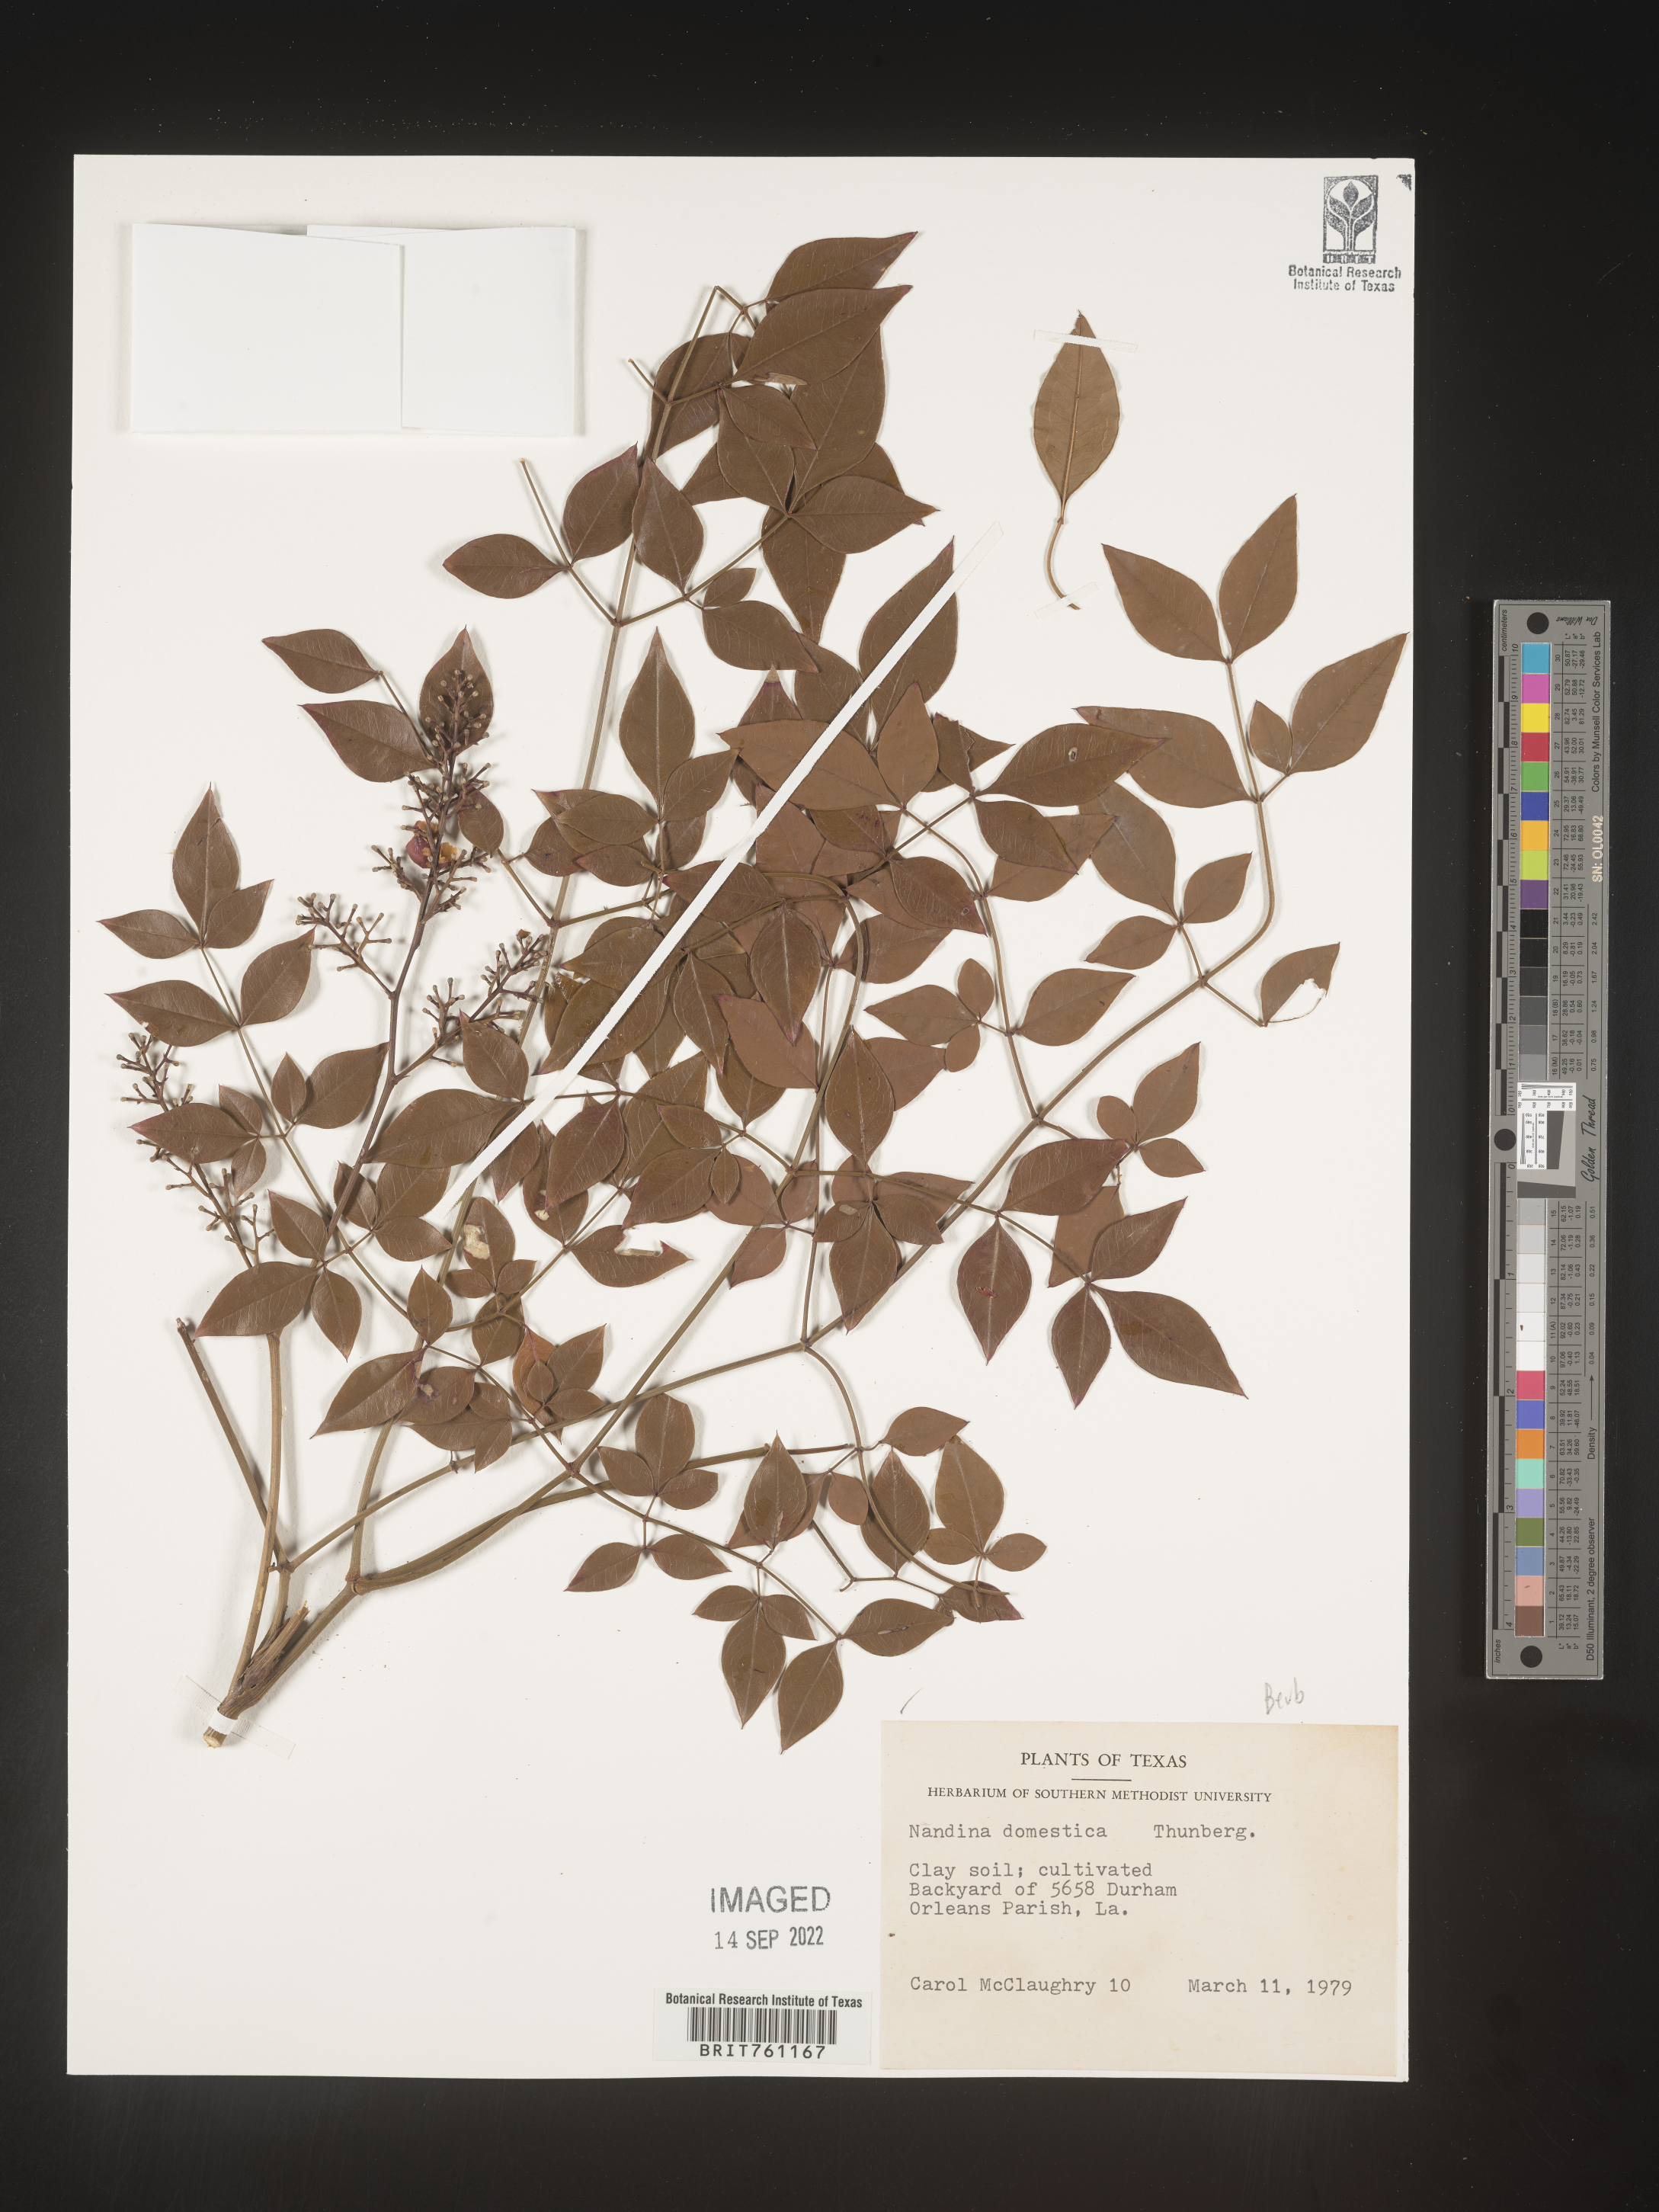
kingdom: Plantae
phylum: Tracheophyta
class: Magnoliopsida
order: Ranunculales
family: Berberidaceae
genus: Nandina
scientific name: Nandina
